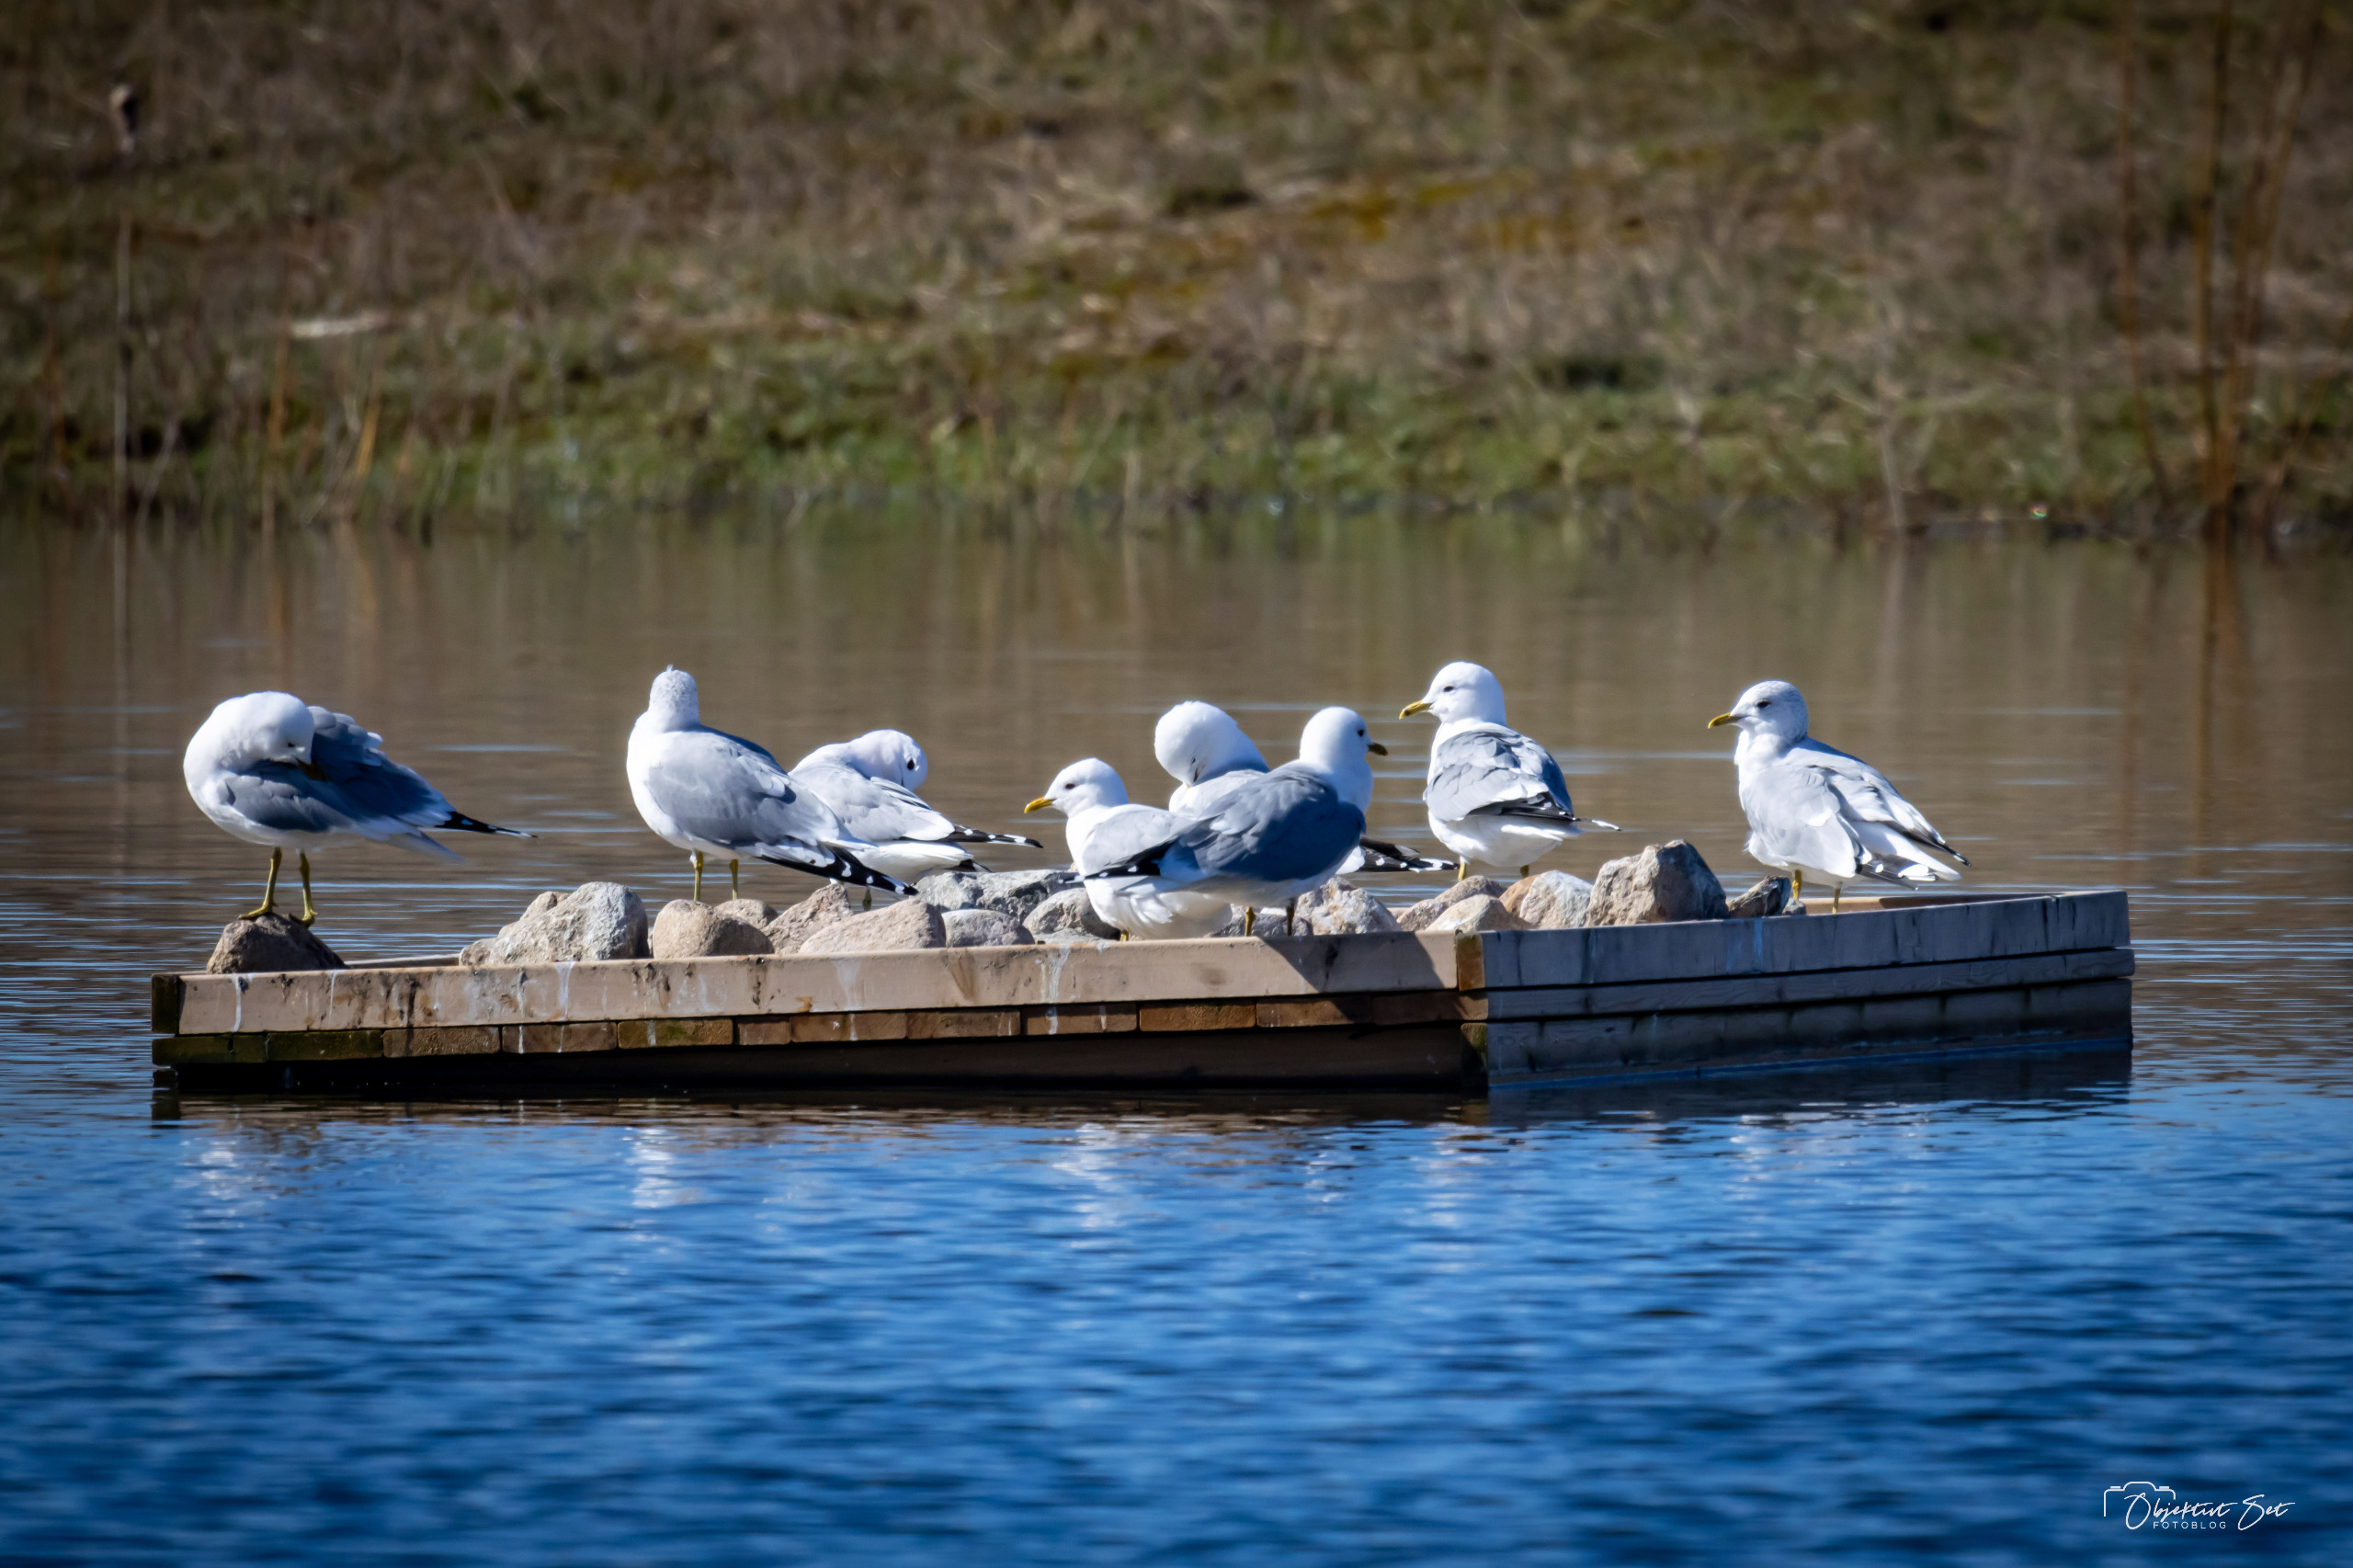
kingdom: Animalia
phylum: Chordata
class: Aves
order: Charadriiformes
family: Laridae
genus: Larus
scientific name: Larus canus
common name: Stormmåge
